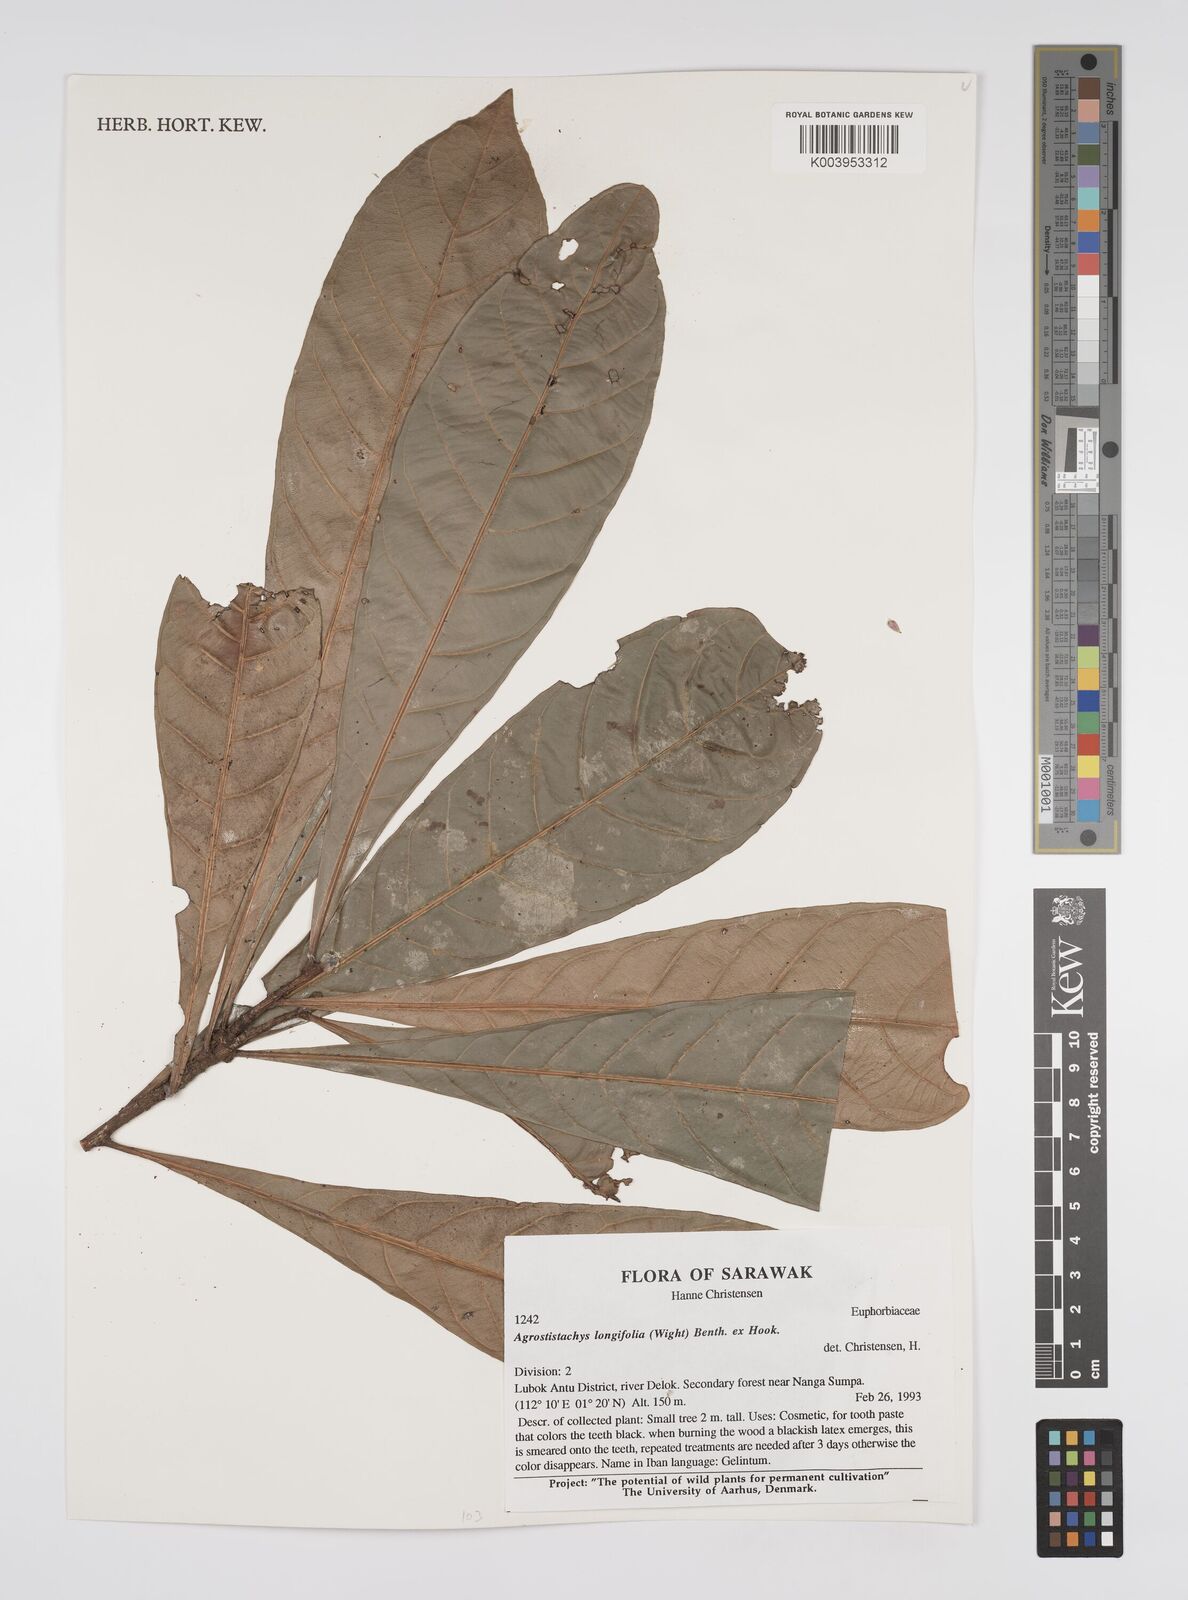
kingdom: Plantae
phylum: Tracheophyta
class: Magnoliopsida
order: Malpighiales
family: Euphorbiaceae
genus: Agrostistachys
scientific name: Agrostistachys
